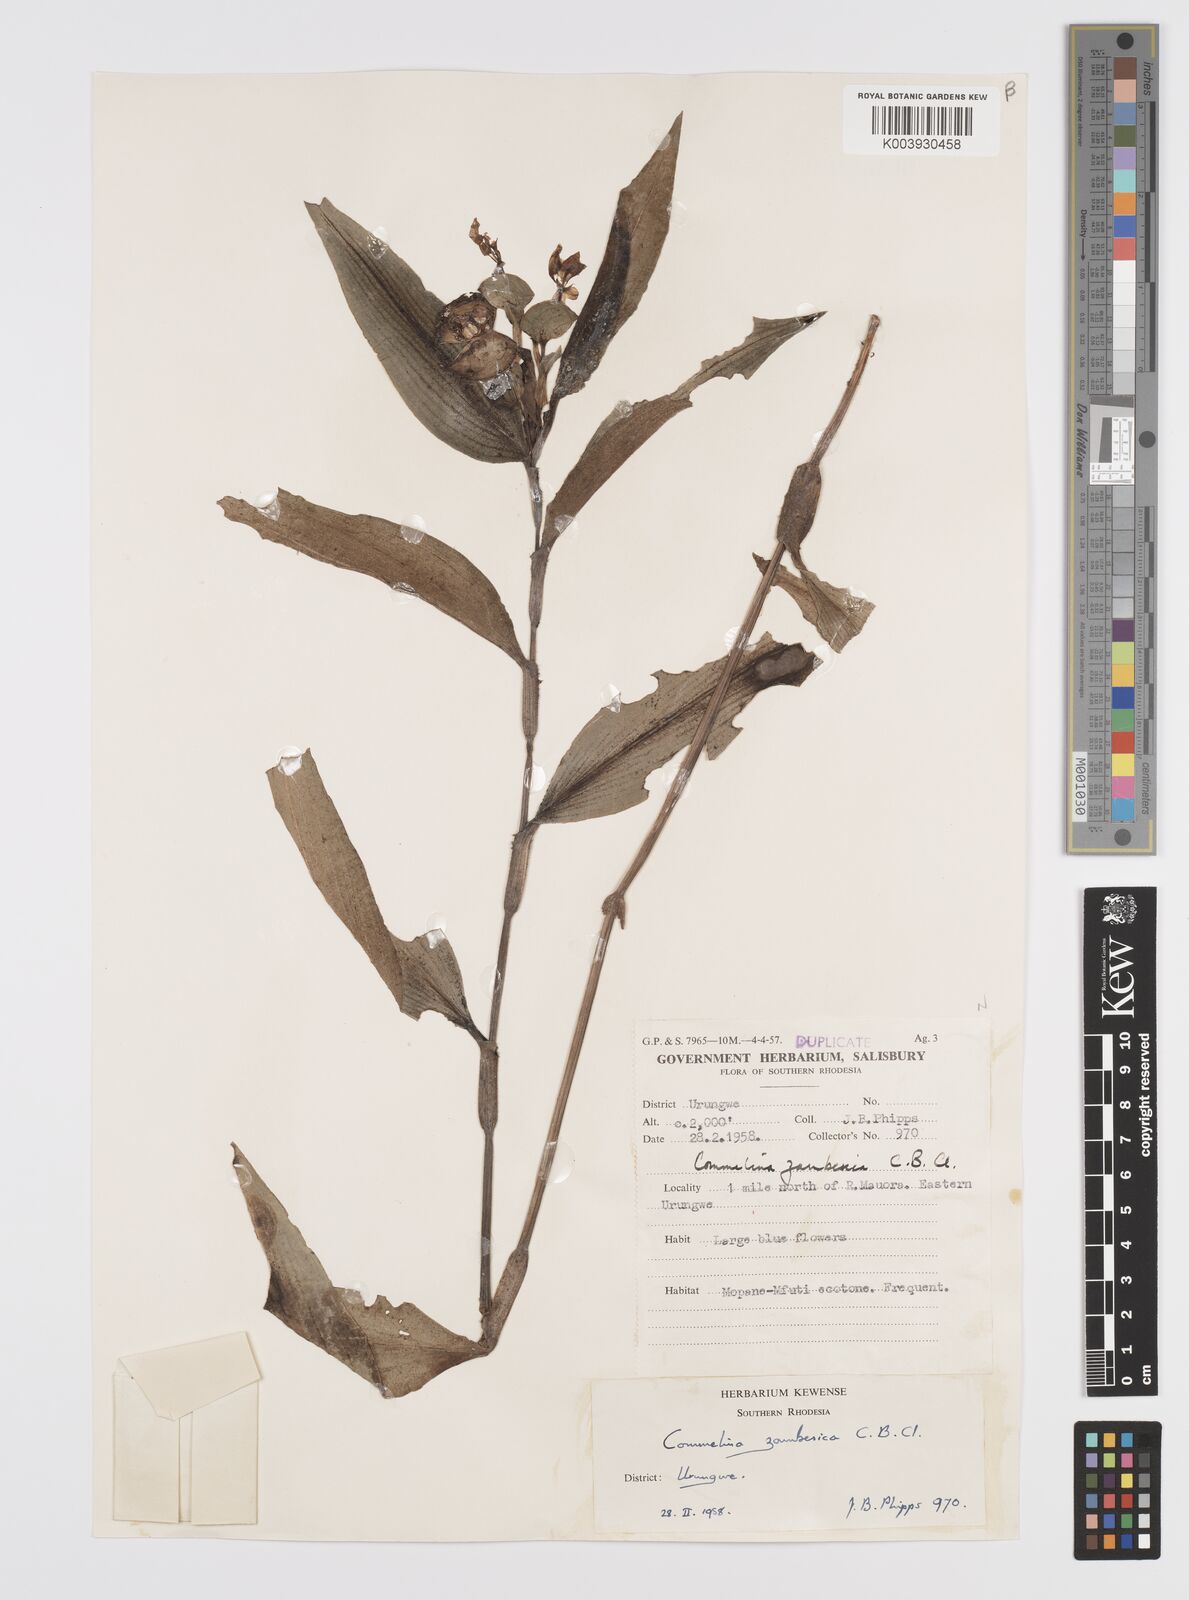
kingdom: Plantae
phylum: Tracheophyta
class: Liliopsida
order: Commelinales
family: Commelinaceae
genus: Commelina
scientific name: Commelina zambesica
